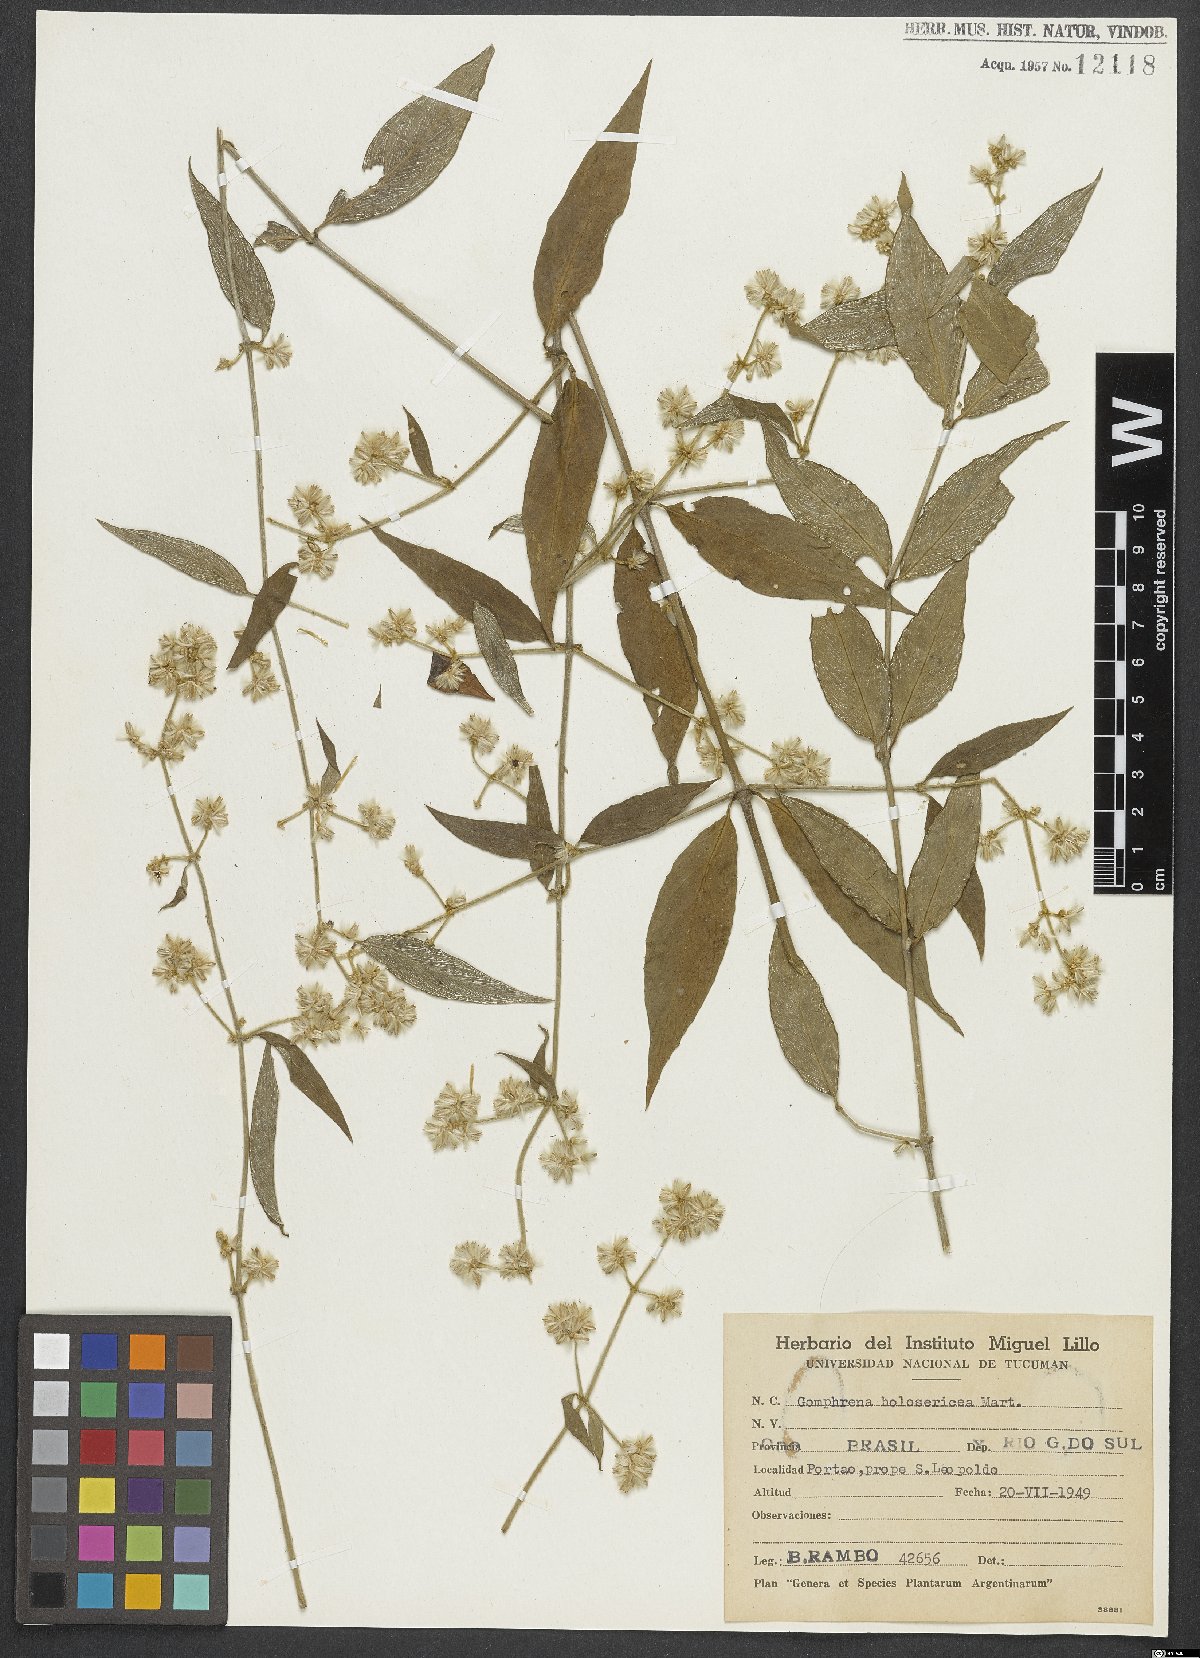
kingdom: Plantae
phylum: Tracheophyta
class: Magnoliopsida
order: Caryophyllales
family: Amaranthaceae
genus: Gomphrena
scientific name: Gomphrena vaga
